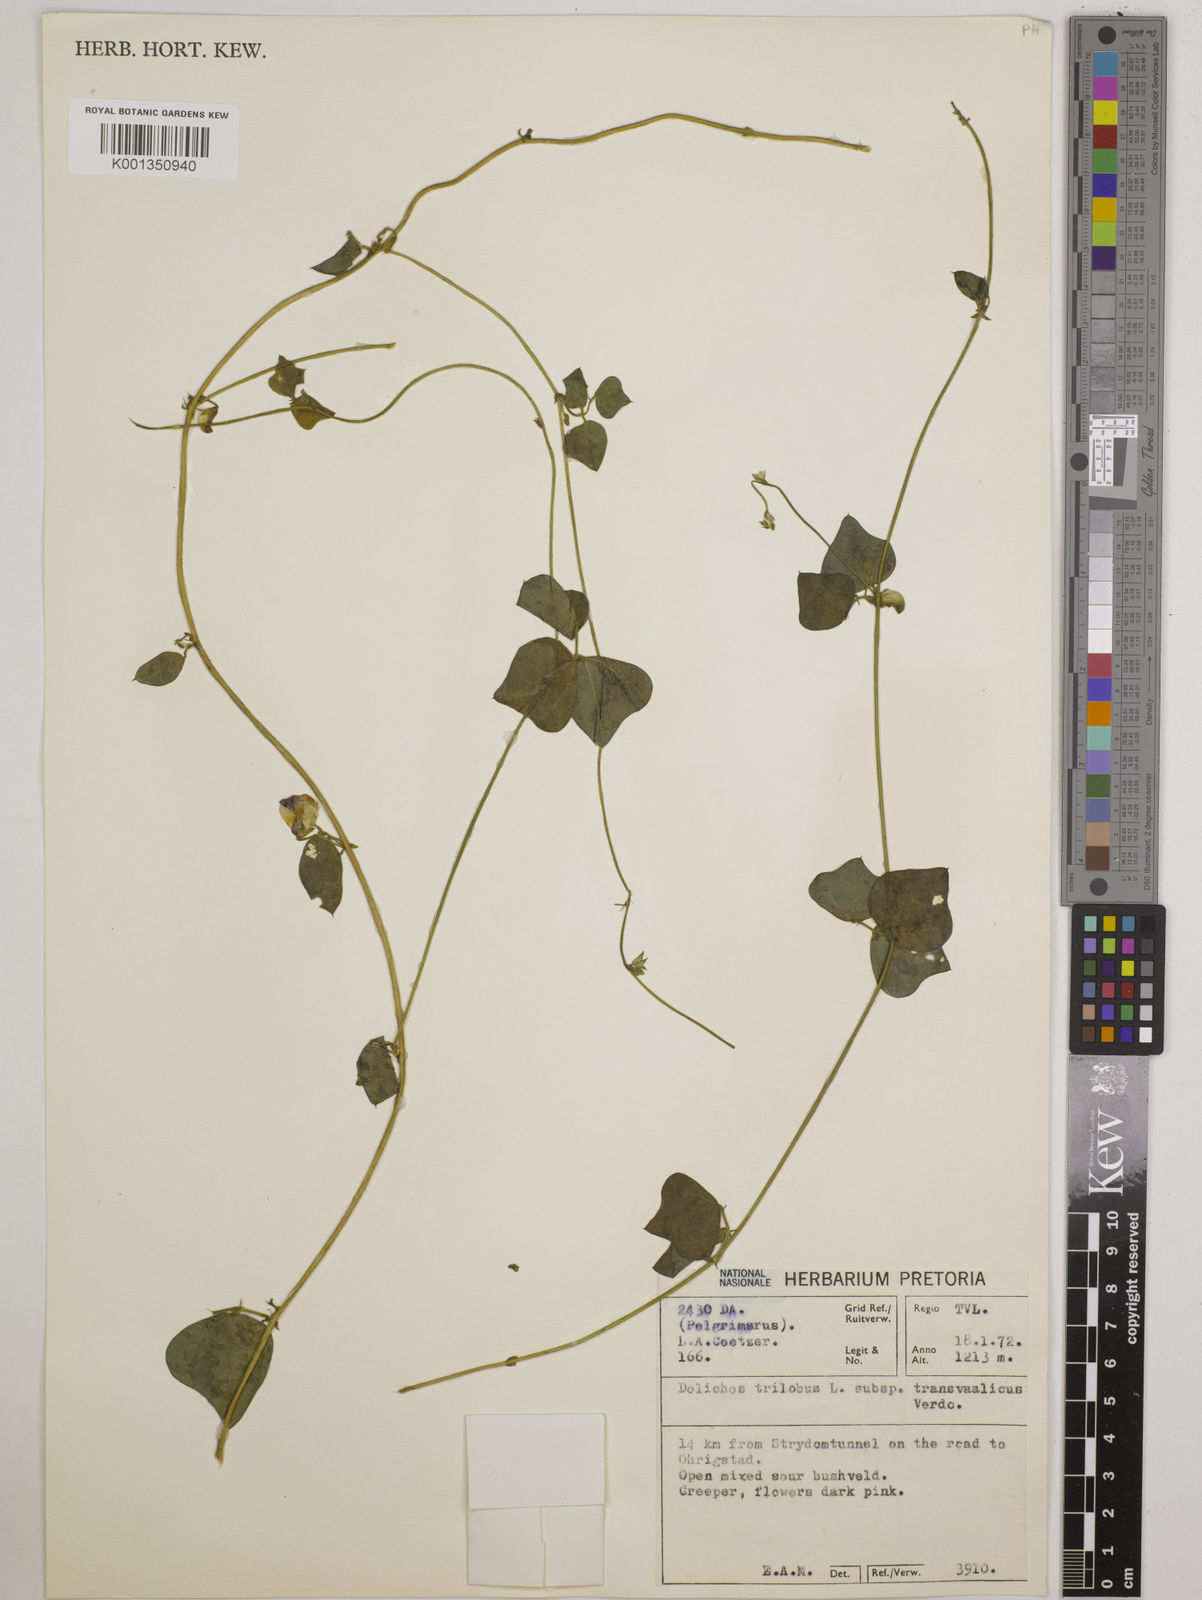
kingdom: Plantae
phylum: Tracheophyta
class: Magnoliopsida
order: Fabales
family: Fabaceae
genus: Dolichos
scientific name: Dolichos
